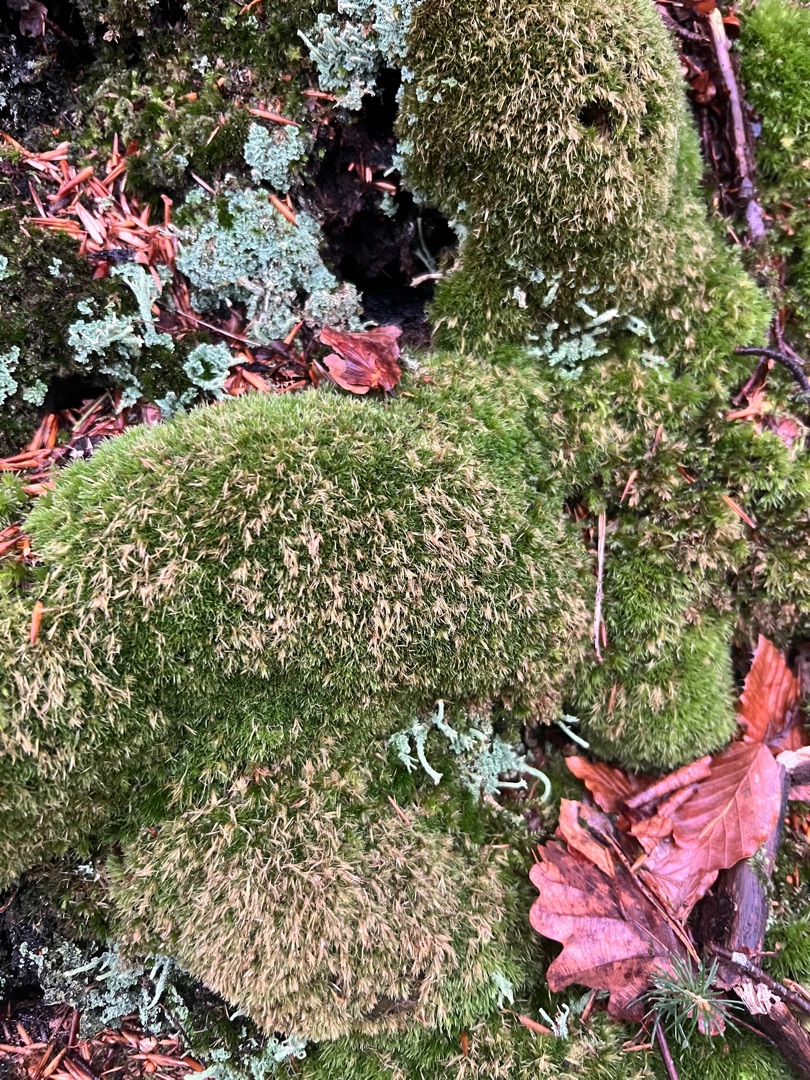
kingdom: Plantae
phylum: Bryophyta
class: Bryopsida
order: Dicranales
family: Leucobryaceae
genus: Leucobryum
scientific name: Leucobryum glaucum
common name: Almindelig hvidmos
